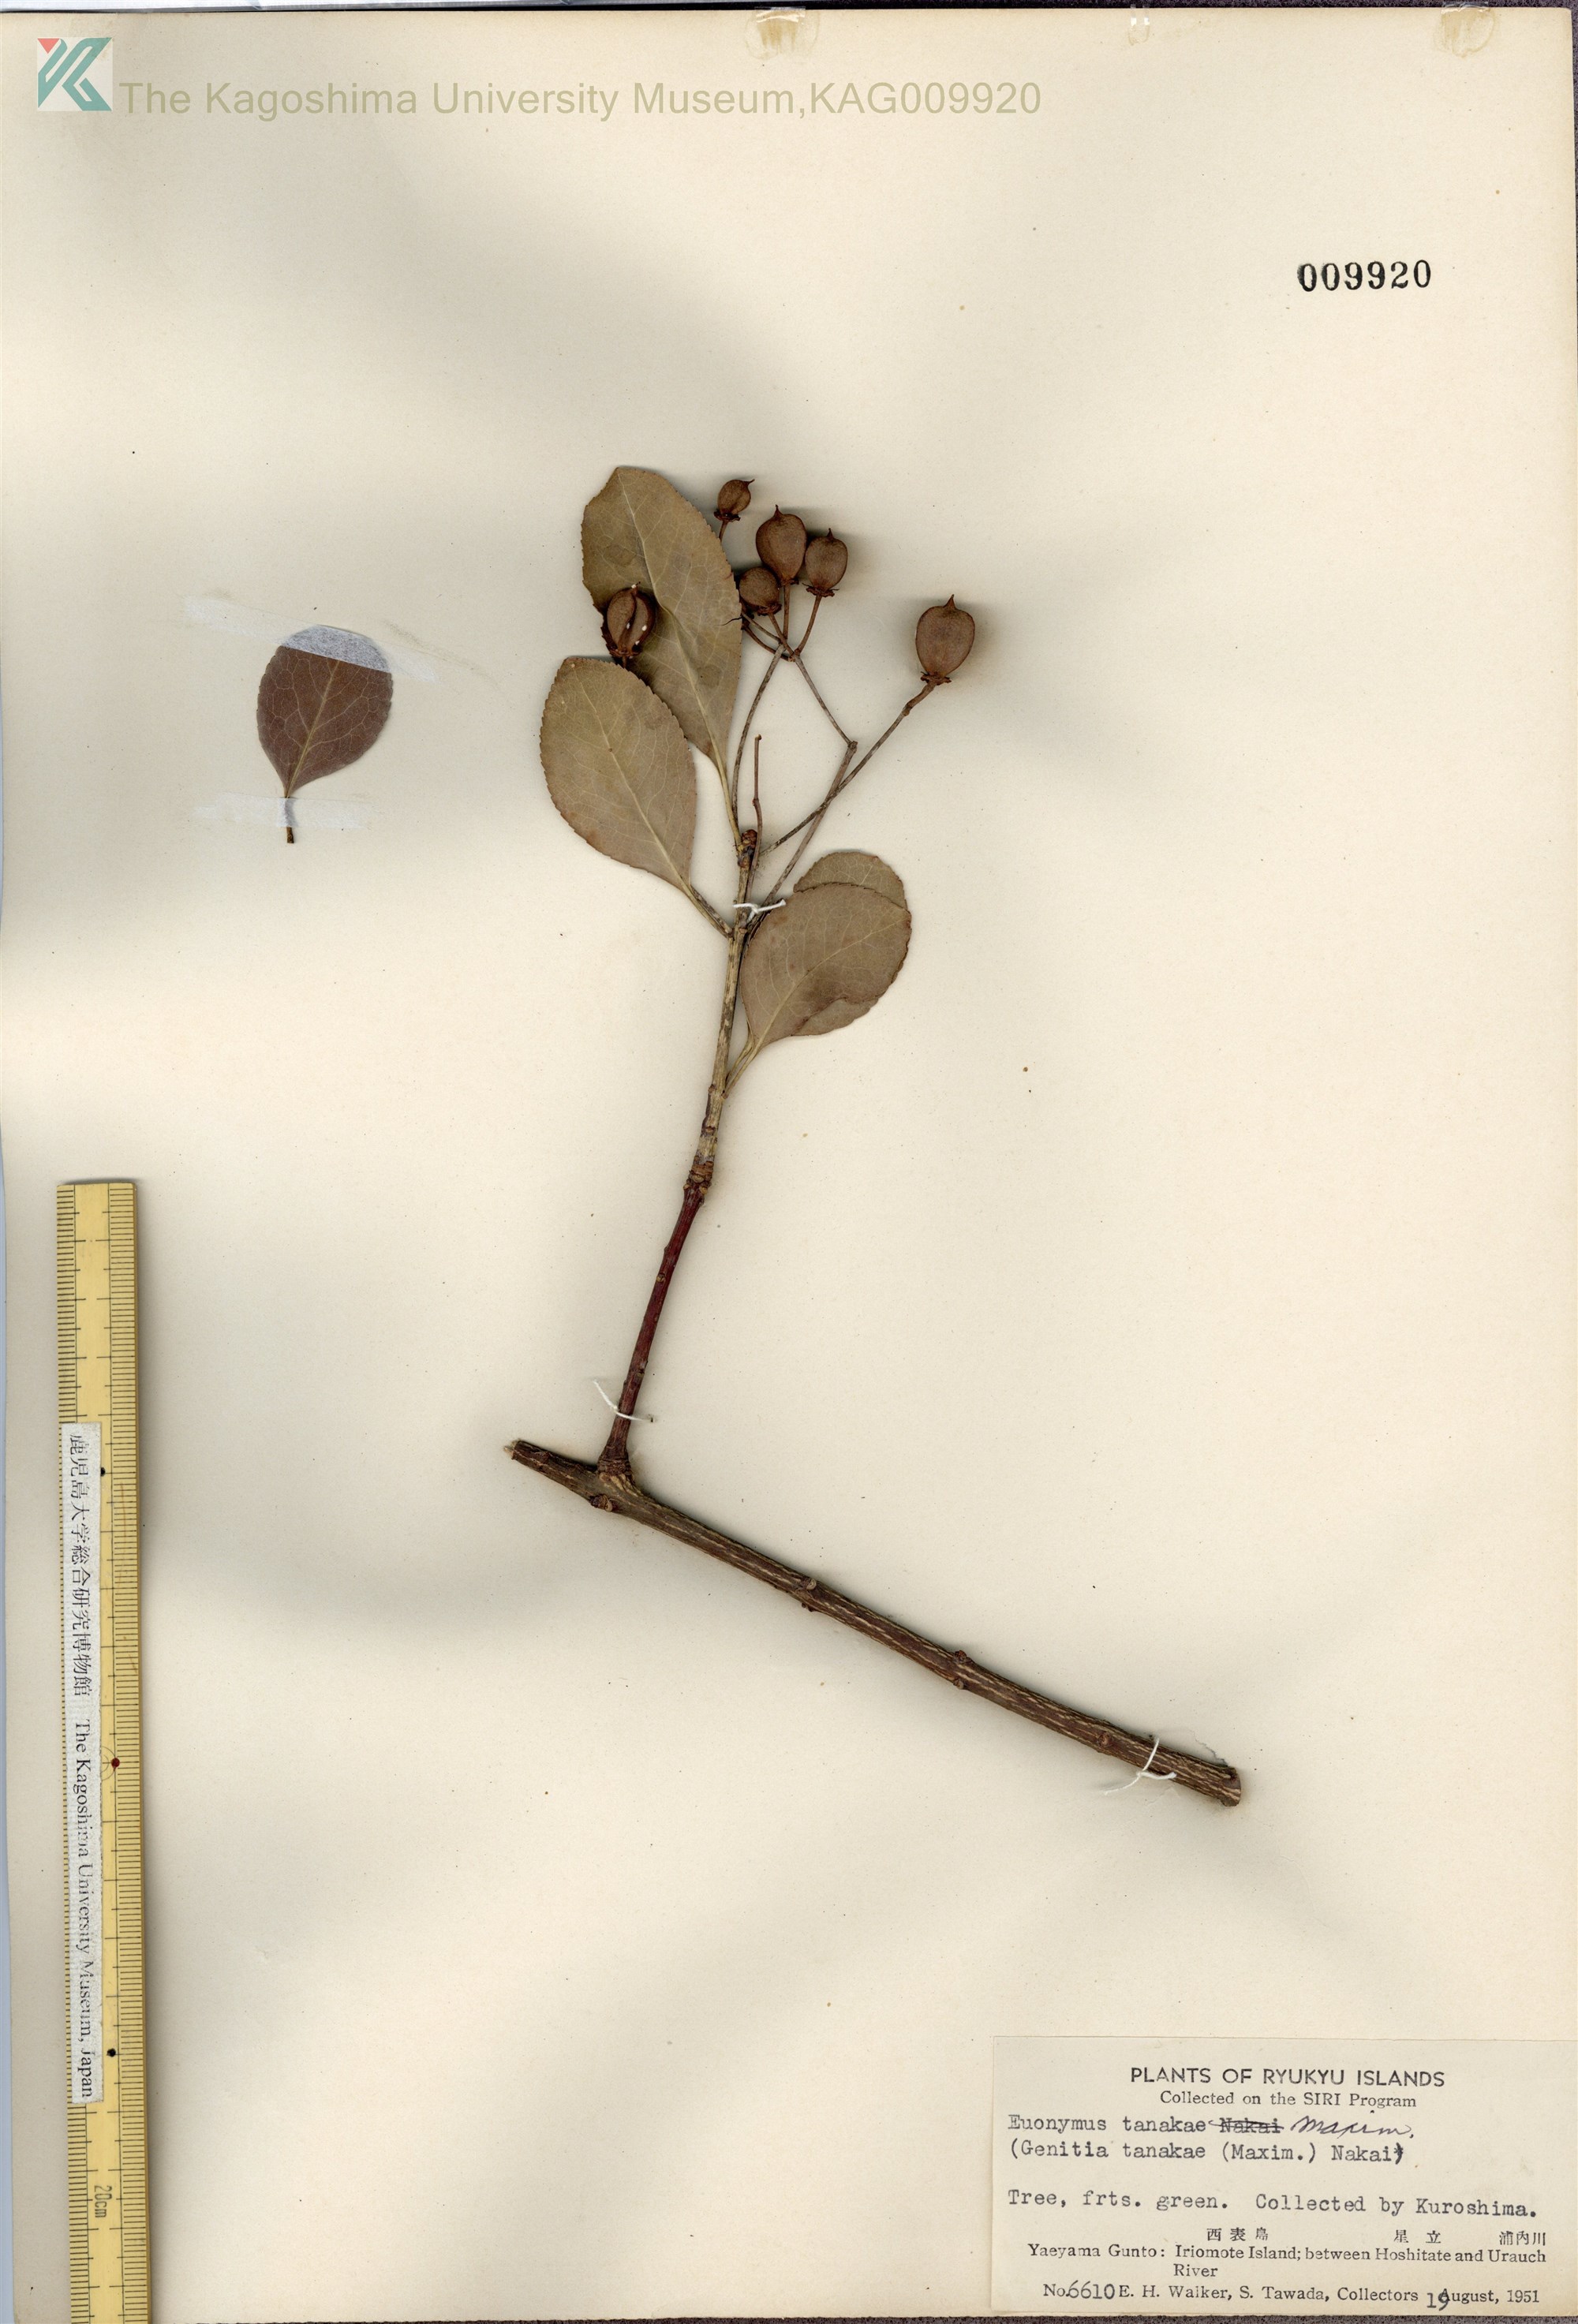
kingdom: Plantae
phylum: Tracheophyta
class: Magnoliopsida
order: Celastrales
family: Celastraceae
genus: Euonymus
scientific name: Euonymus carnosus
